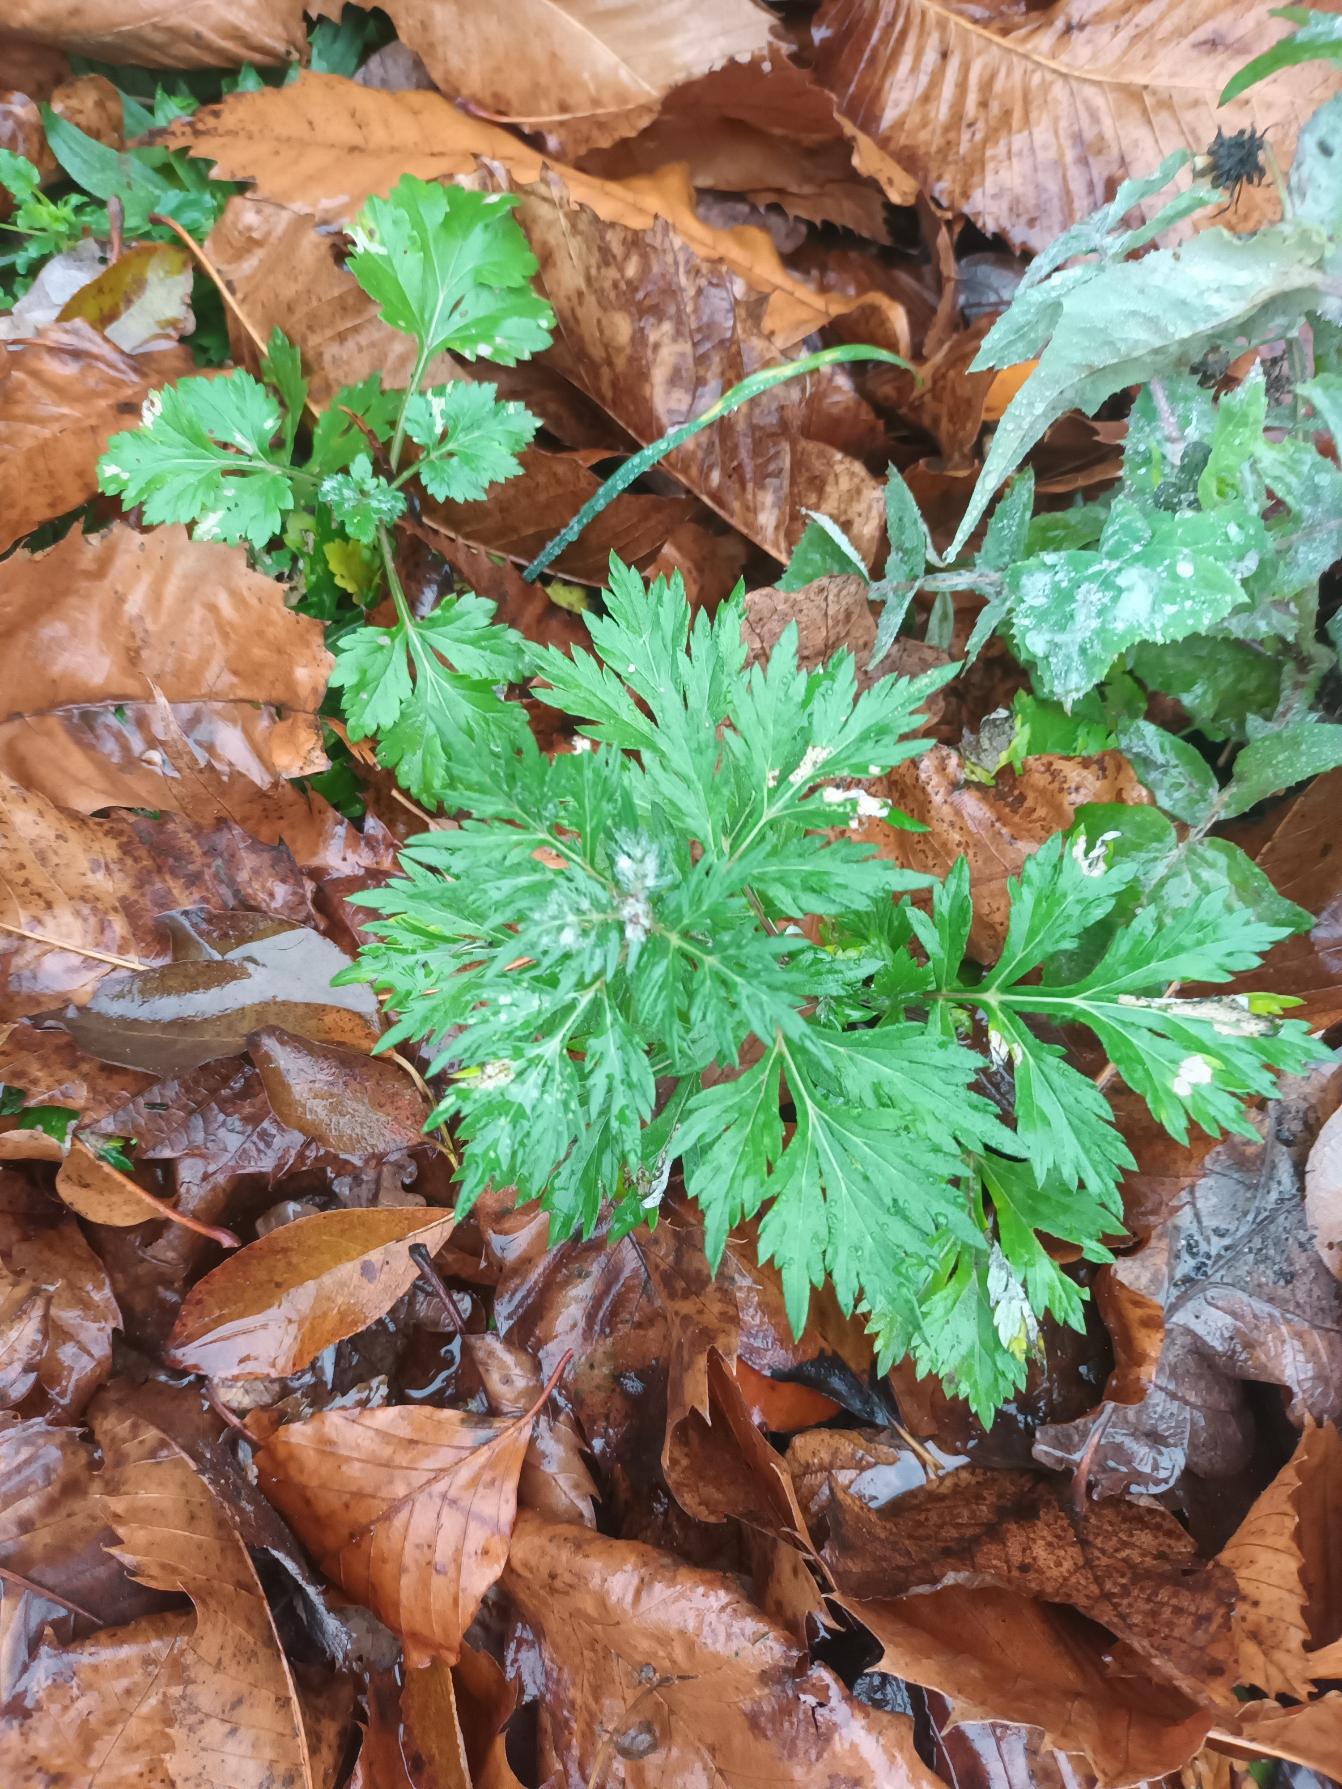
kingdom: Plantae
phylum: Tracheophyta
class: Magnoliopsida
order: Asterales
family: Asteraceae
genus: Artemisia
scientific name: Artemisia vulgaris
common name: Grå-bynke
